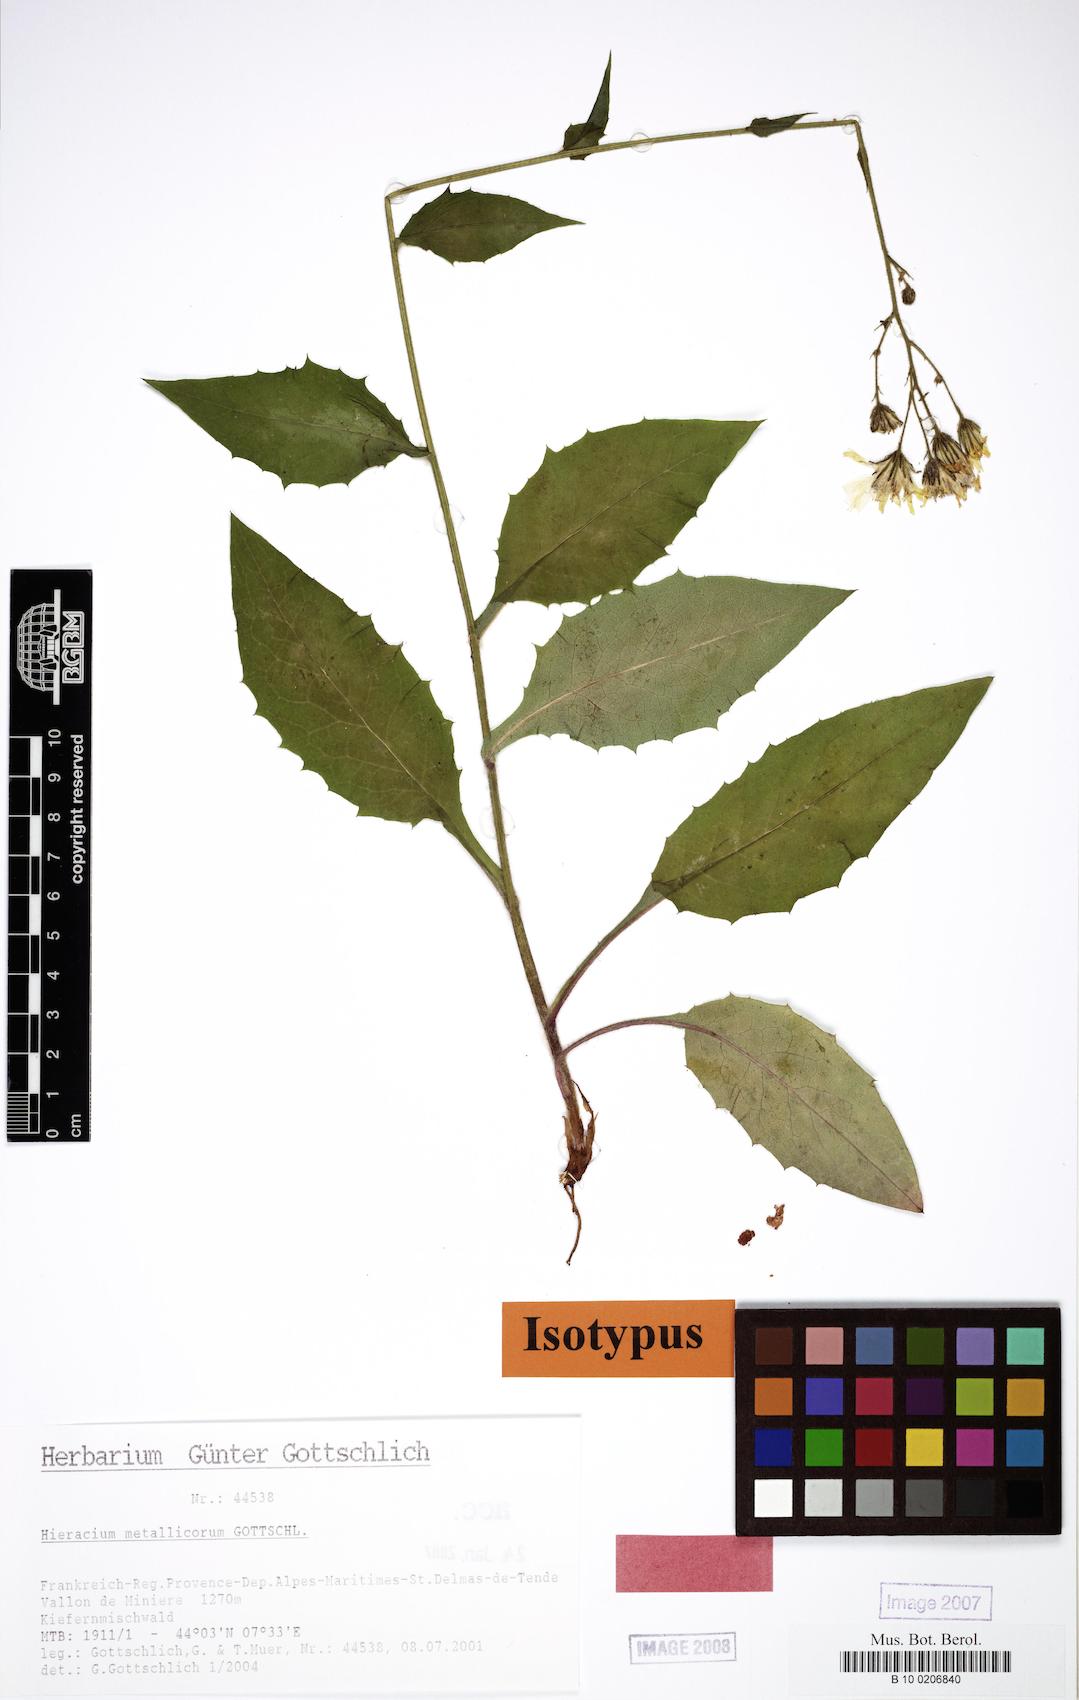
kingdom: Plantae
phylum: Tracheophyta
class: Magnoliopsida
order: Asterales
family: Asteraceae
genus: Hieracium
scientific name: Hieracium metallicorum
